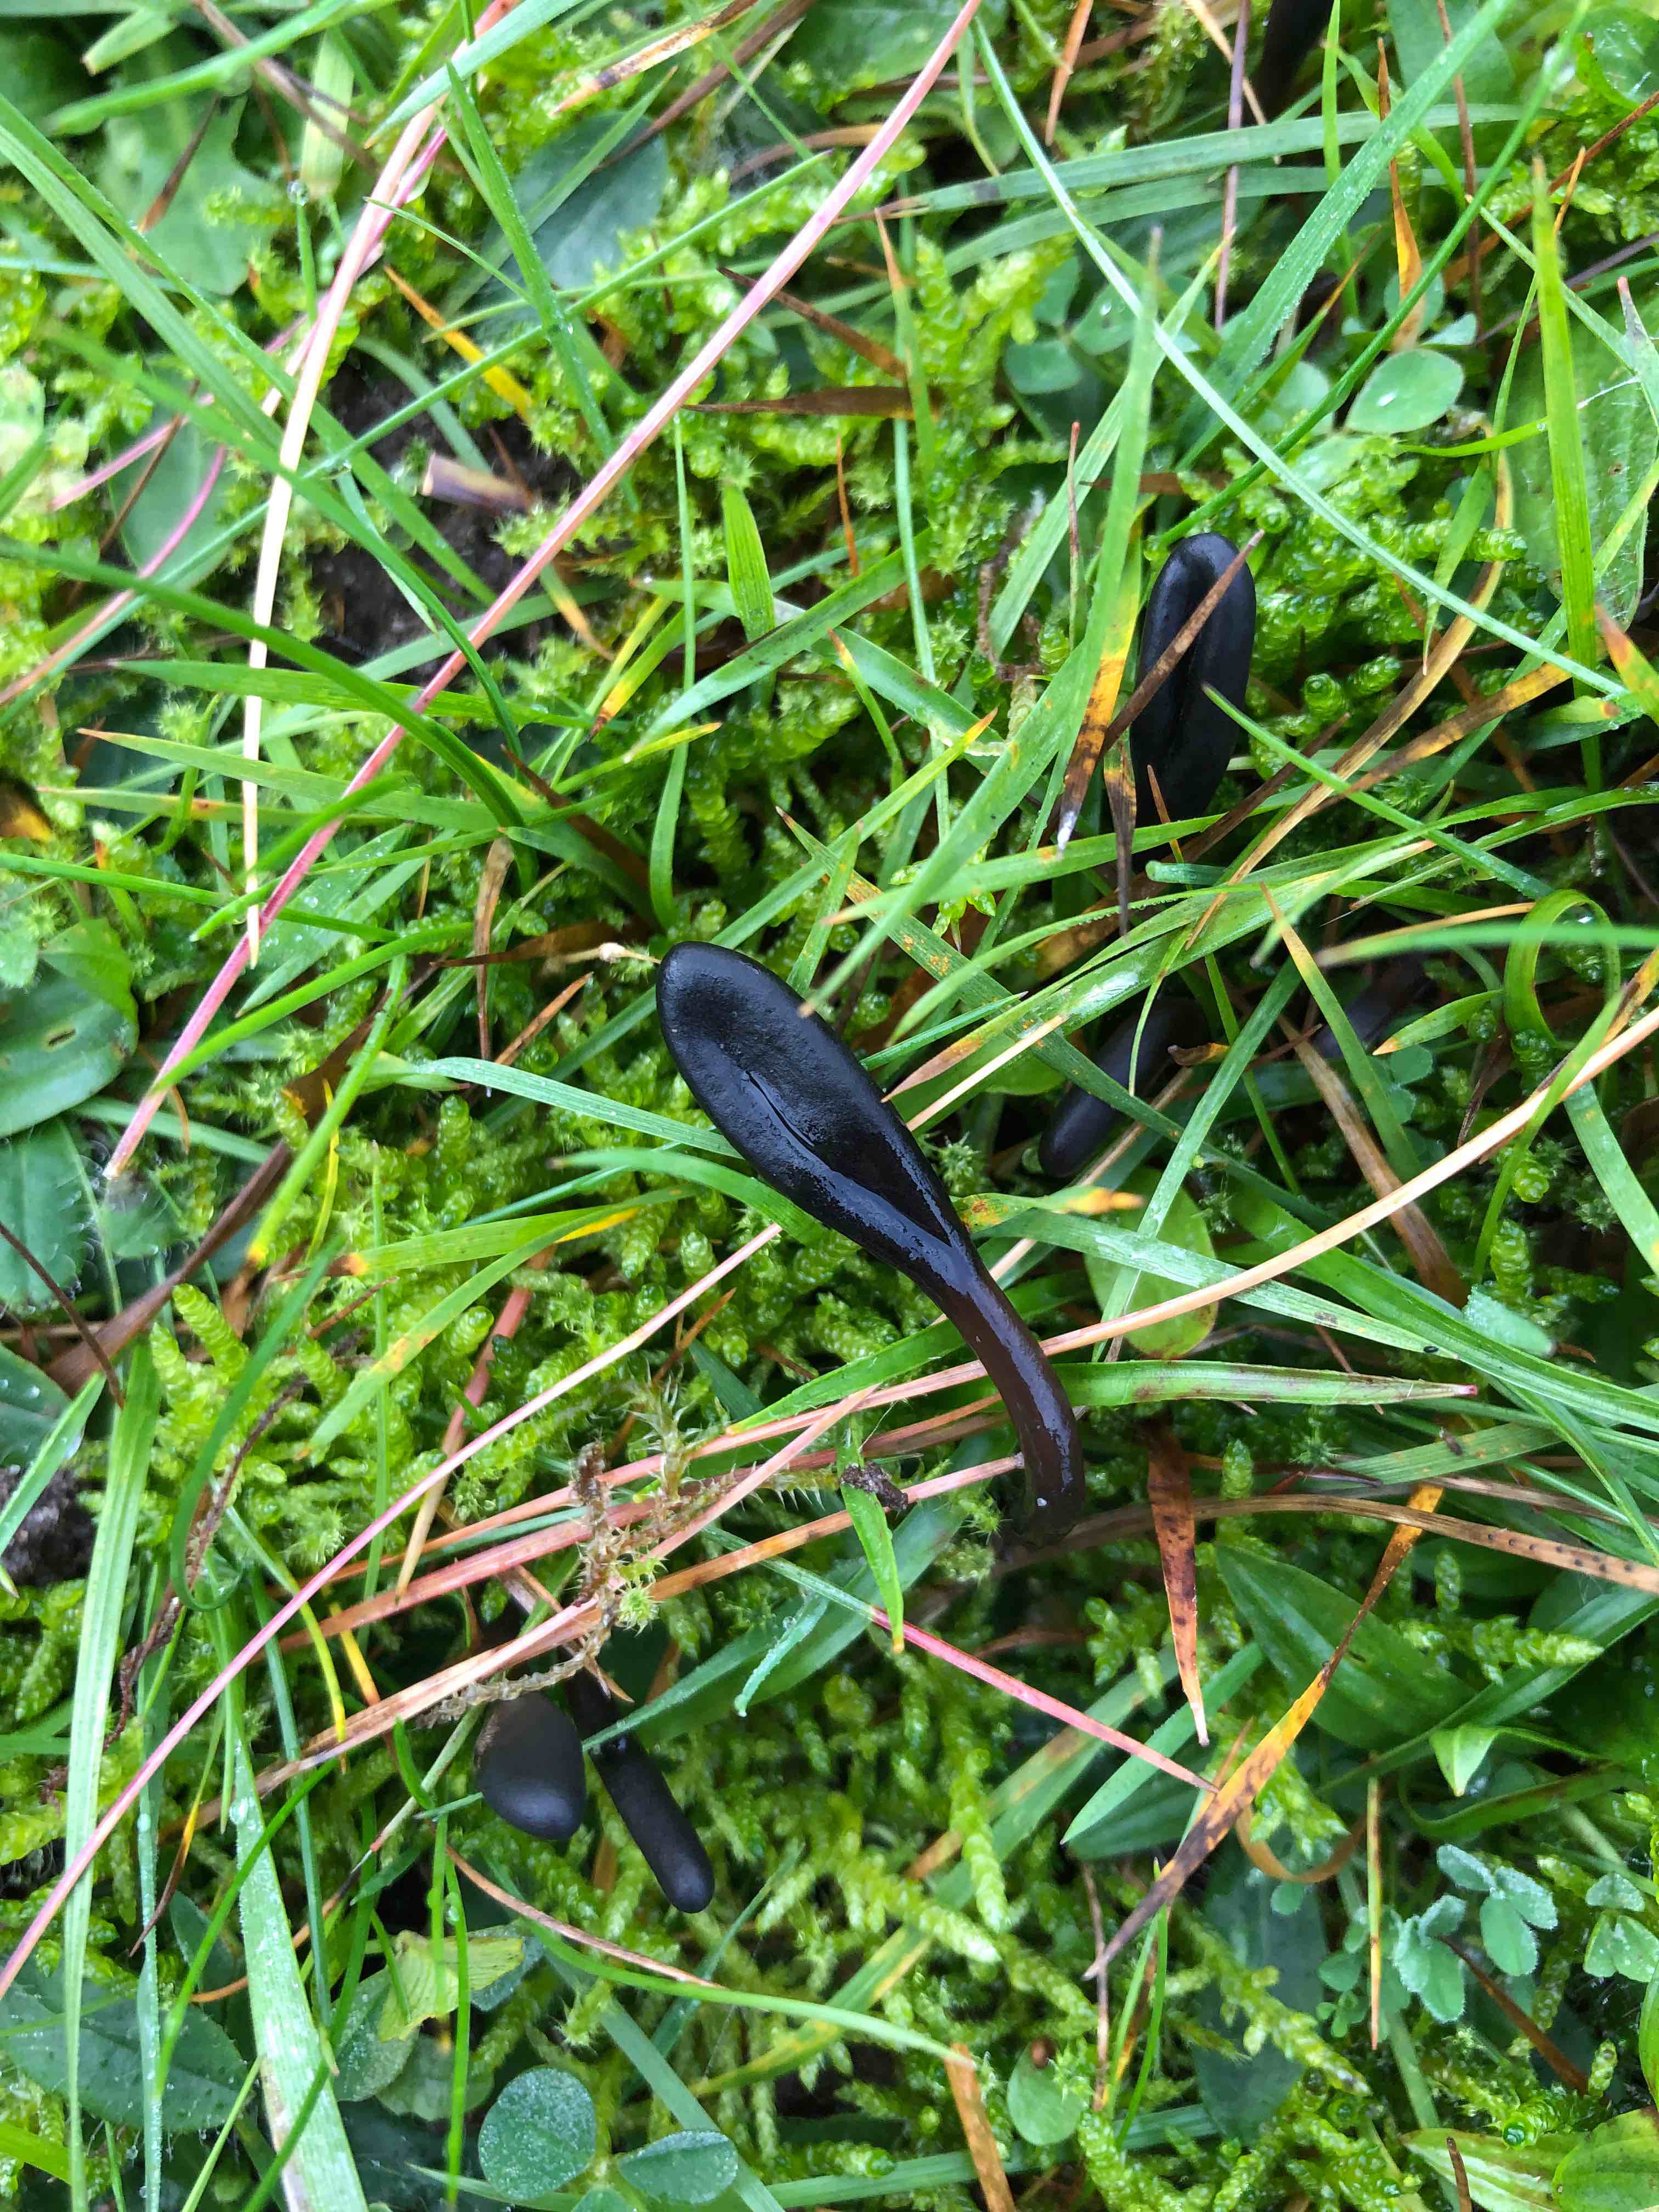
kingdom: Fungi
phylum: Ascomycota
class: Geoglossomycetes
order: Geoglossales
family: Geoglossaceae
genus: Glutinoglossum
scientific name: Glutinoglossum glutinosum
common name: slimet jordtunge
